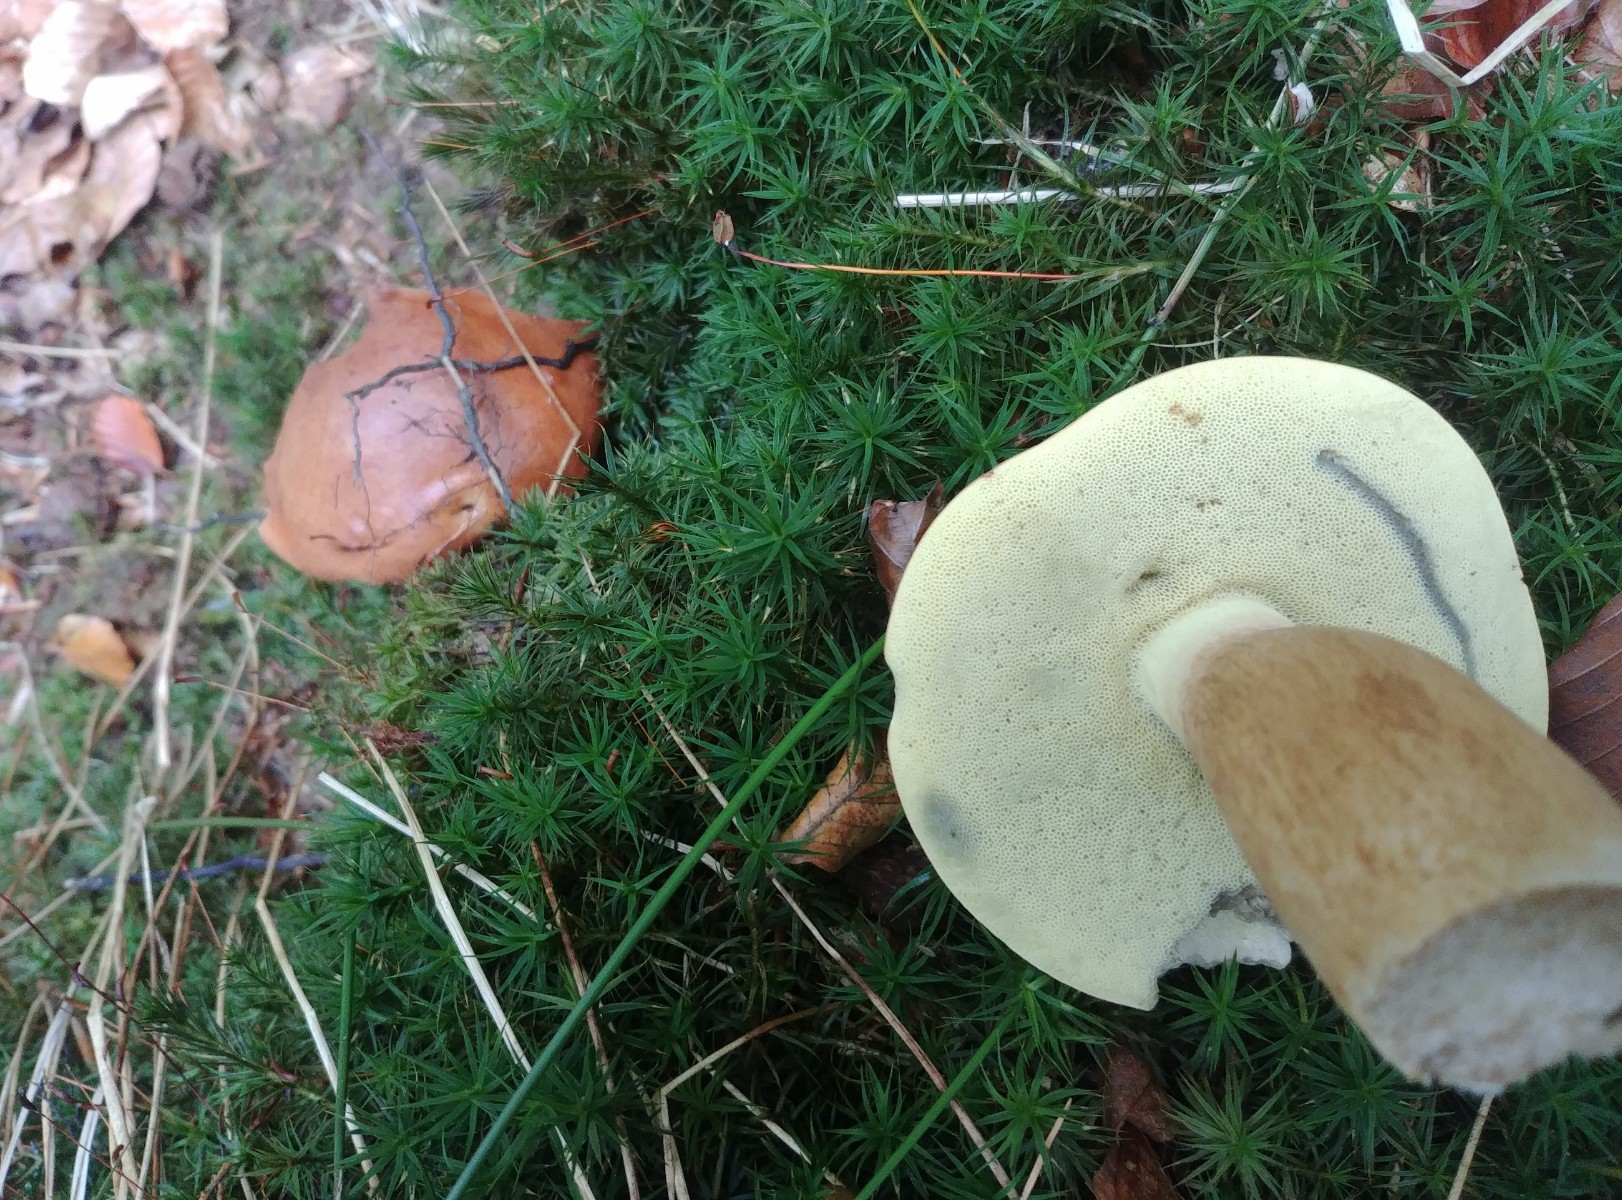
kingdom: Fungi
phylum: Basidiomycota
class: Agaricomycetes
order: Boletales
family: Boletaceae
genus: Imleria
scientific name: Imleria badia
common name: brunstokket rørhat
